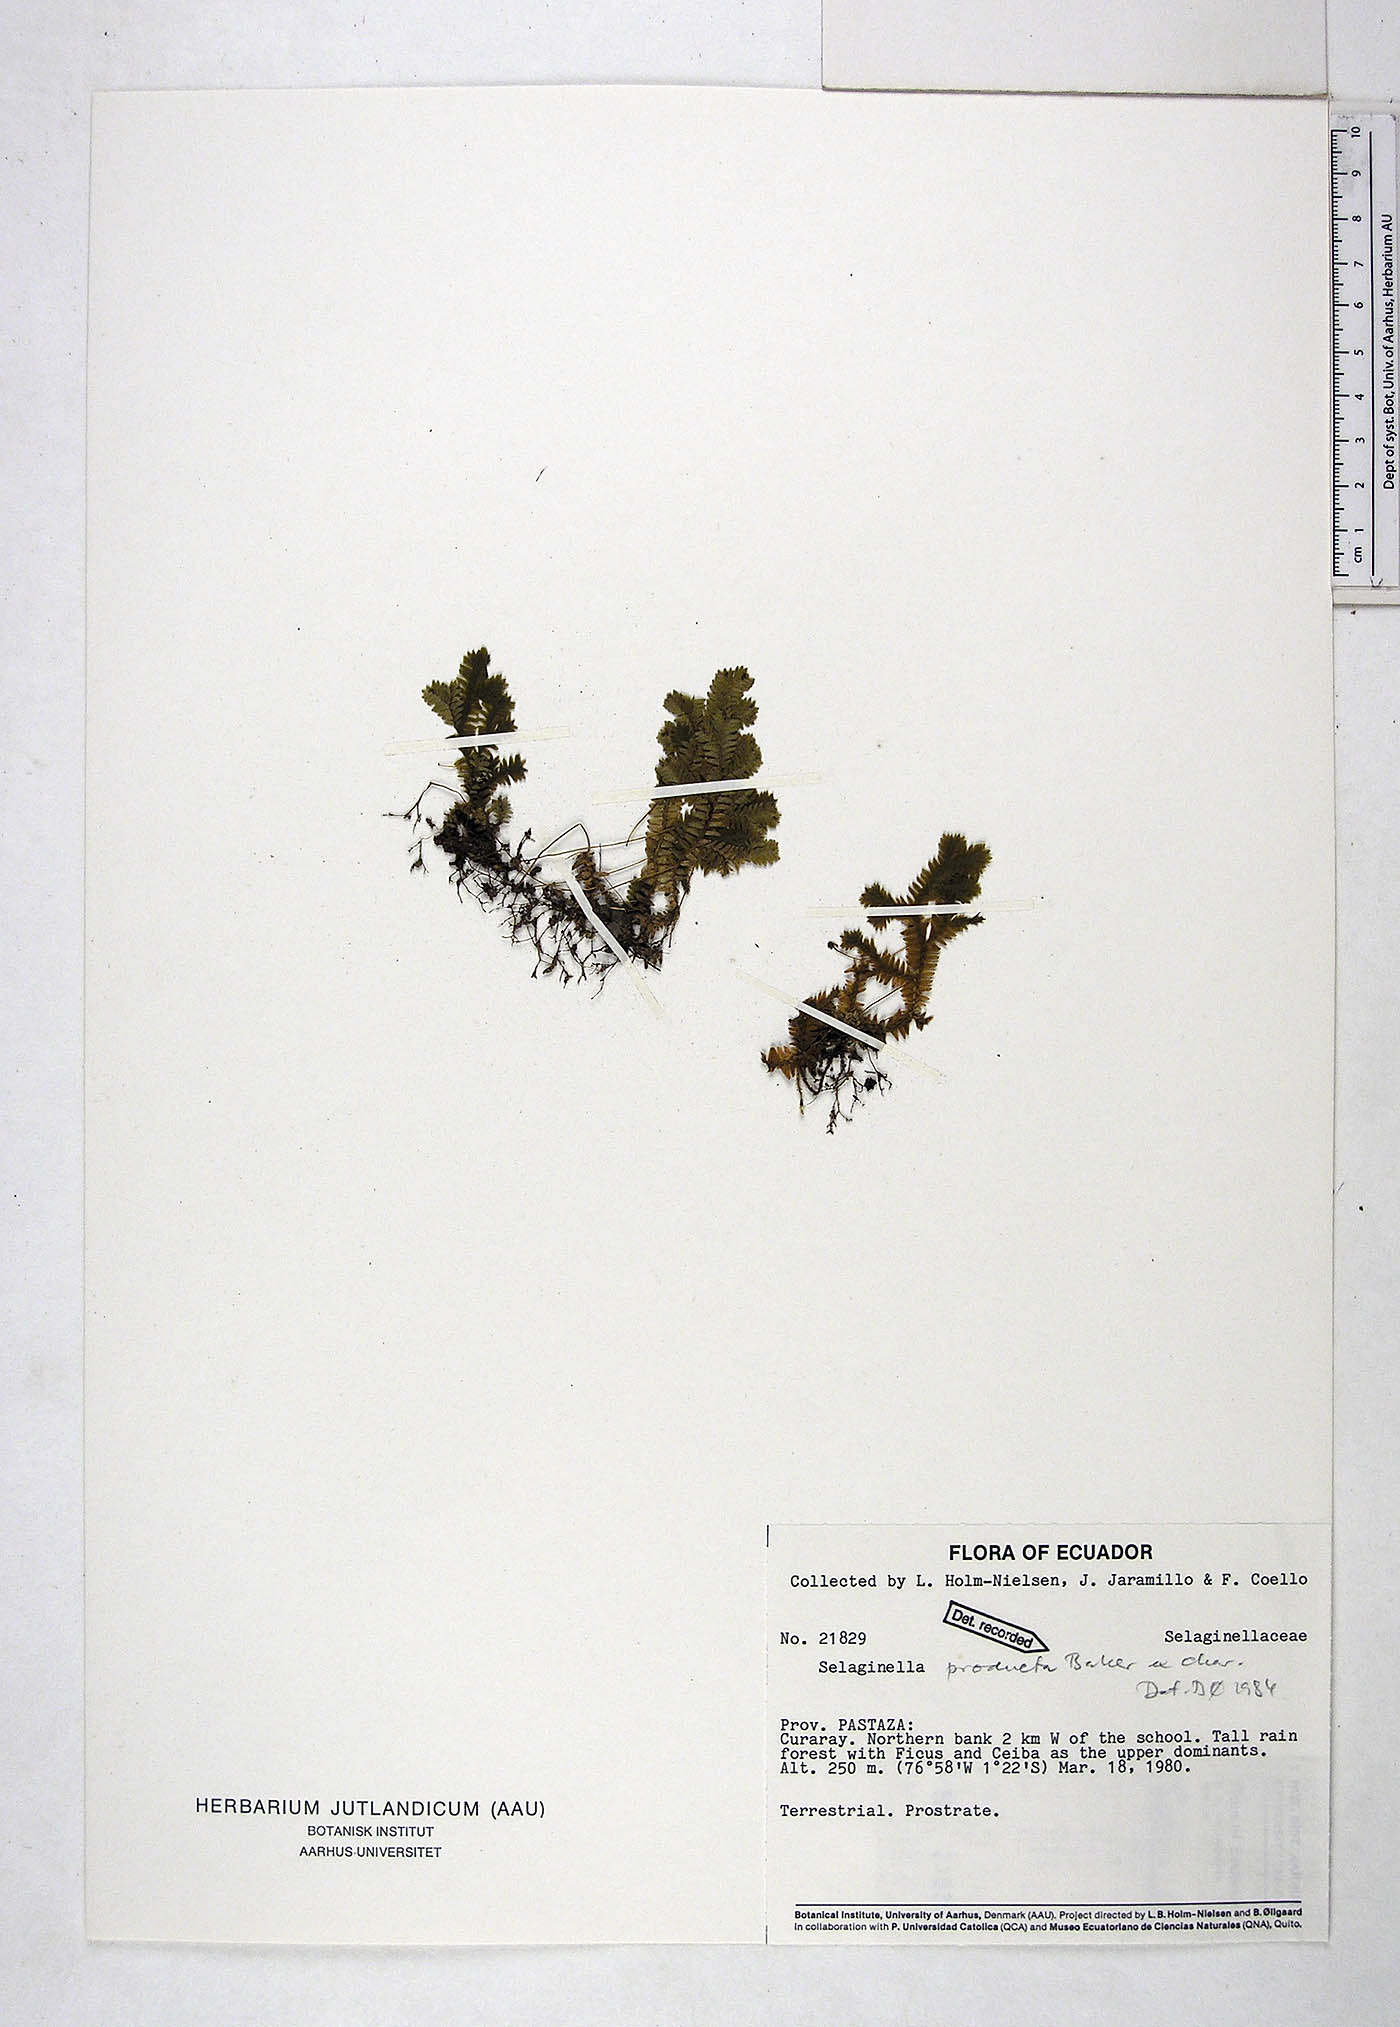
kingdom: Plantae
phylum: Tracheophyta
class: Lycopodiopsida
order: Selaginellales
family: Selaginellaceae
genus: Selaginella
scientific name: Selaginella producta
